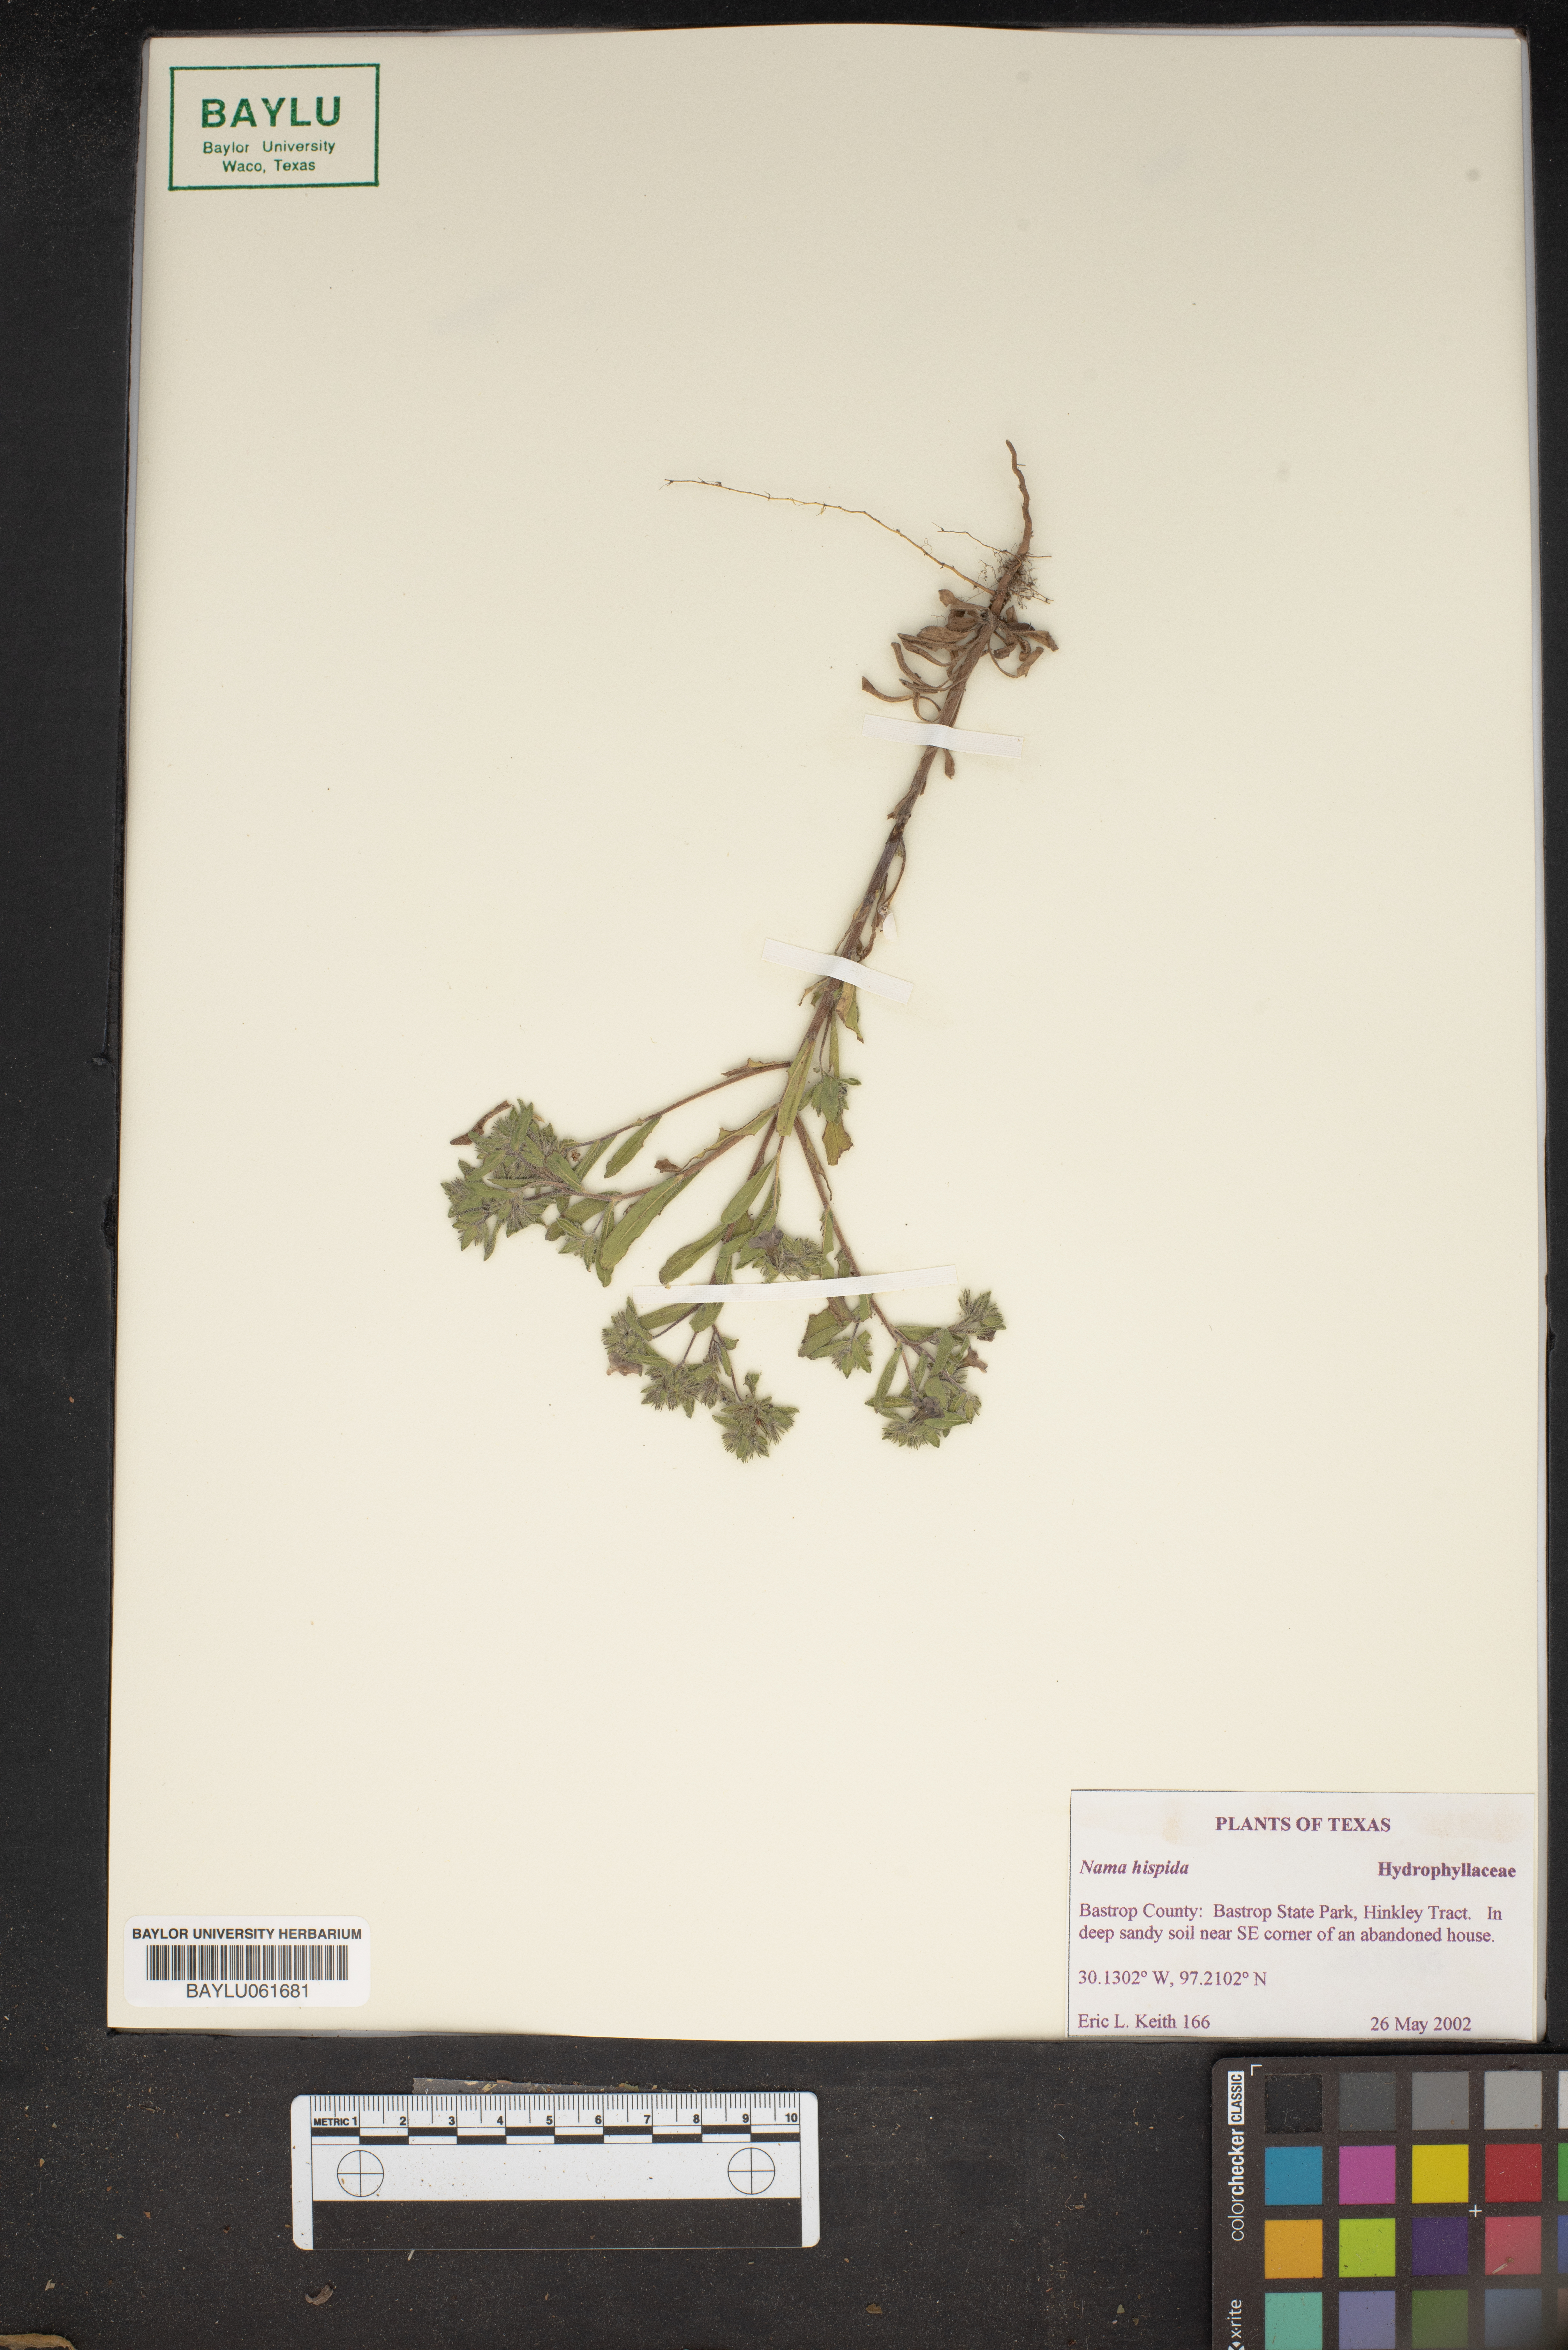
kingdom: Plantae
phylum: Tracheophyta
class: Magnoliopsida
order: Boraginales
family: Namaceae
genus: Nama
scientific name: Nama hispida
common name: Bristly nama
